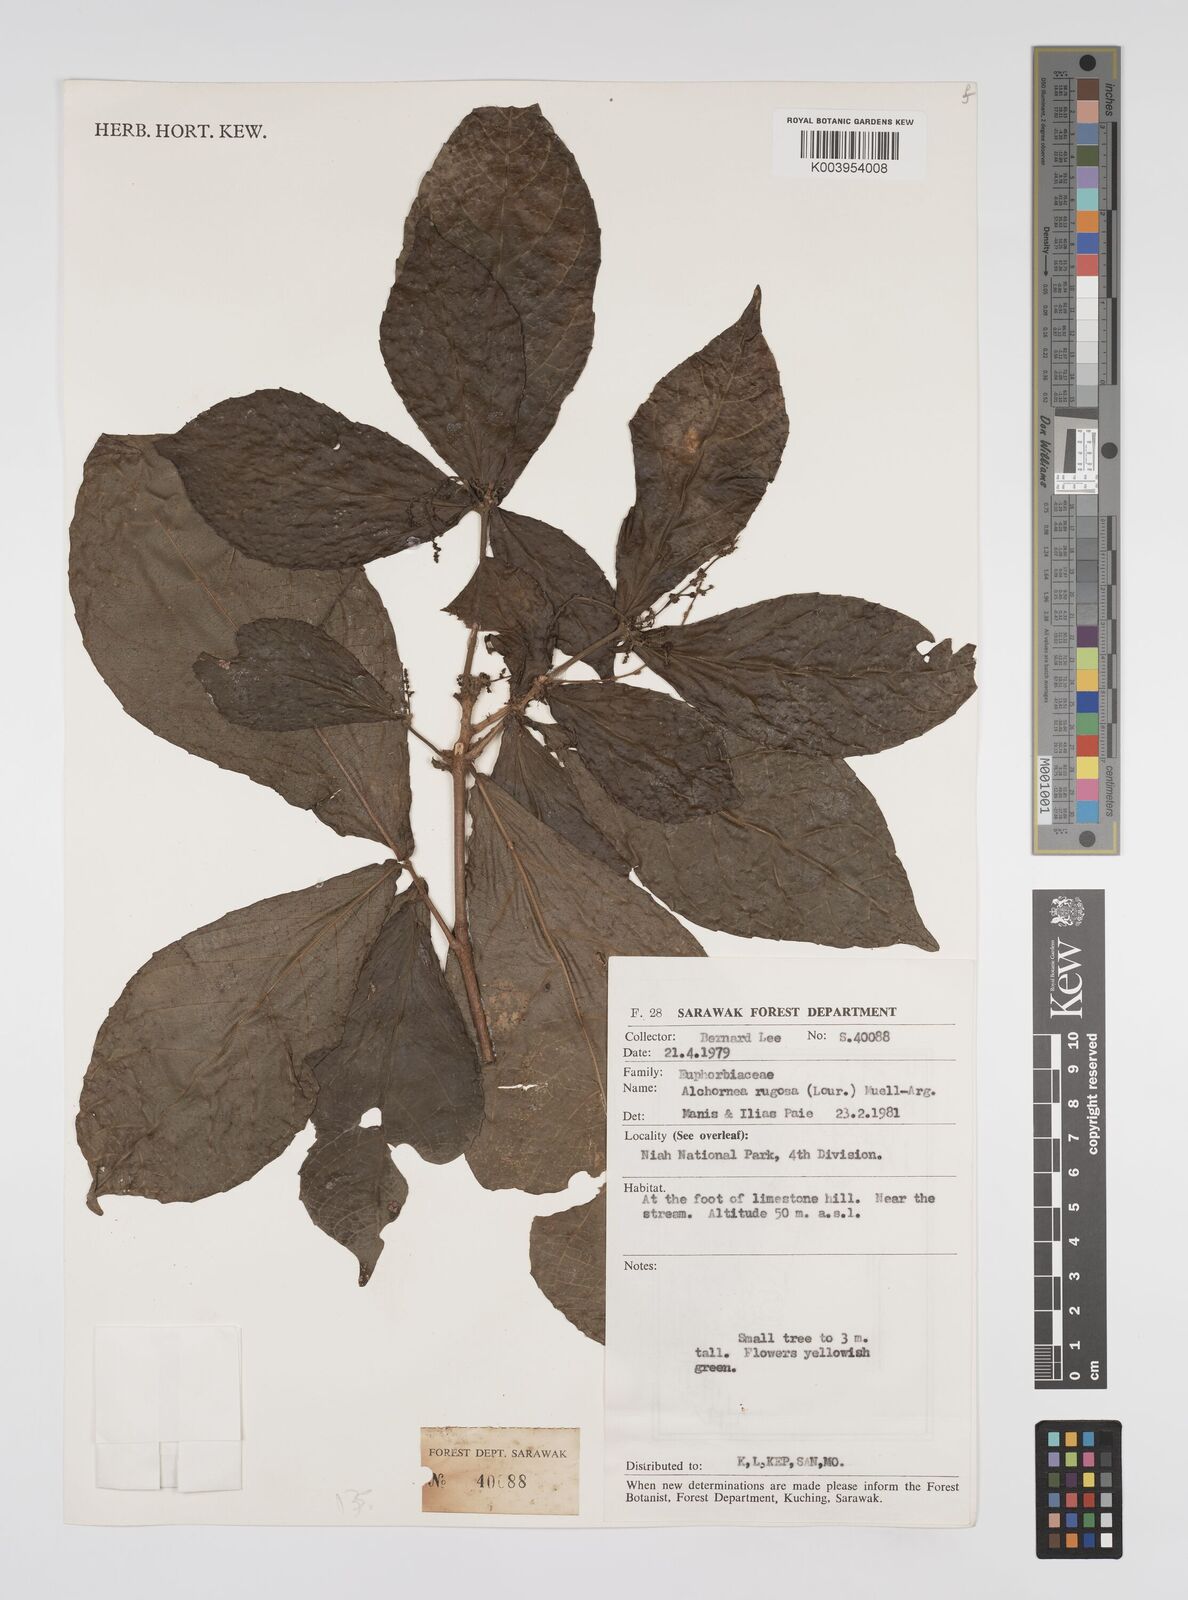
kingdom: Plantae
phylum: Tracheophyta
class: Magnoliopsida
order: Malpighiales
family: Euphorbiaceae
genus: Alchornea
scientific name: Alchornea rugosa
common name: Alchorntree
